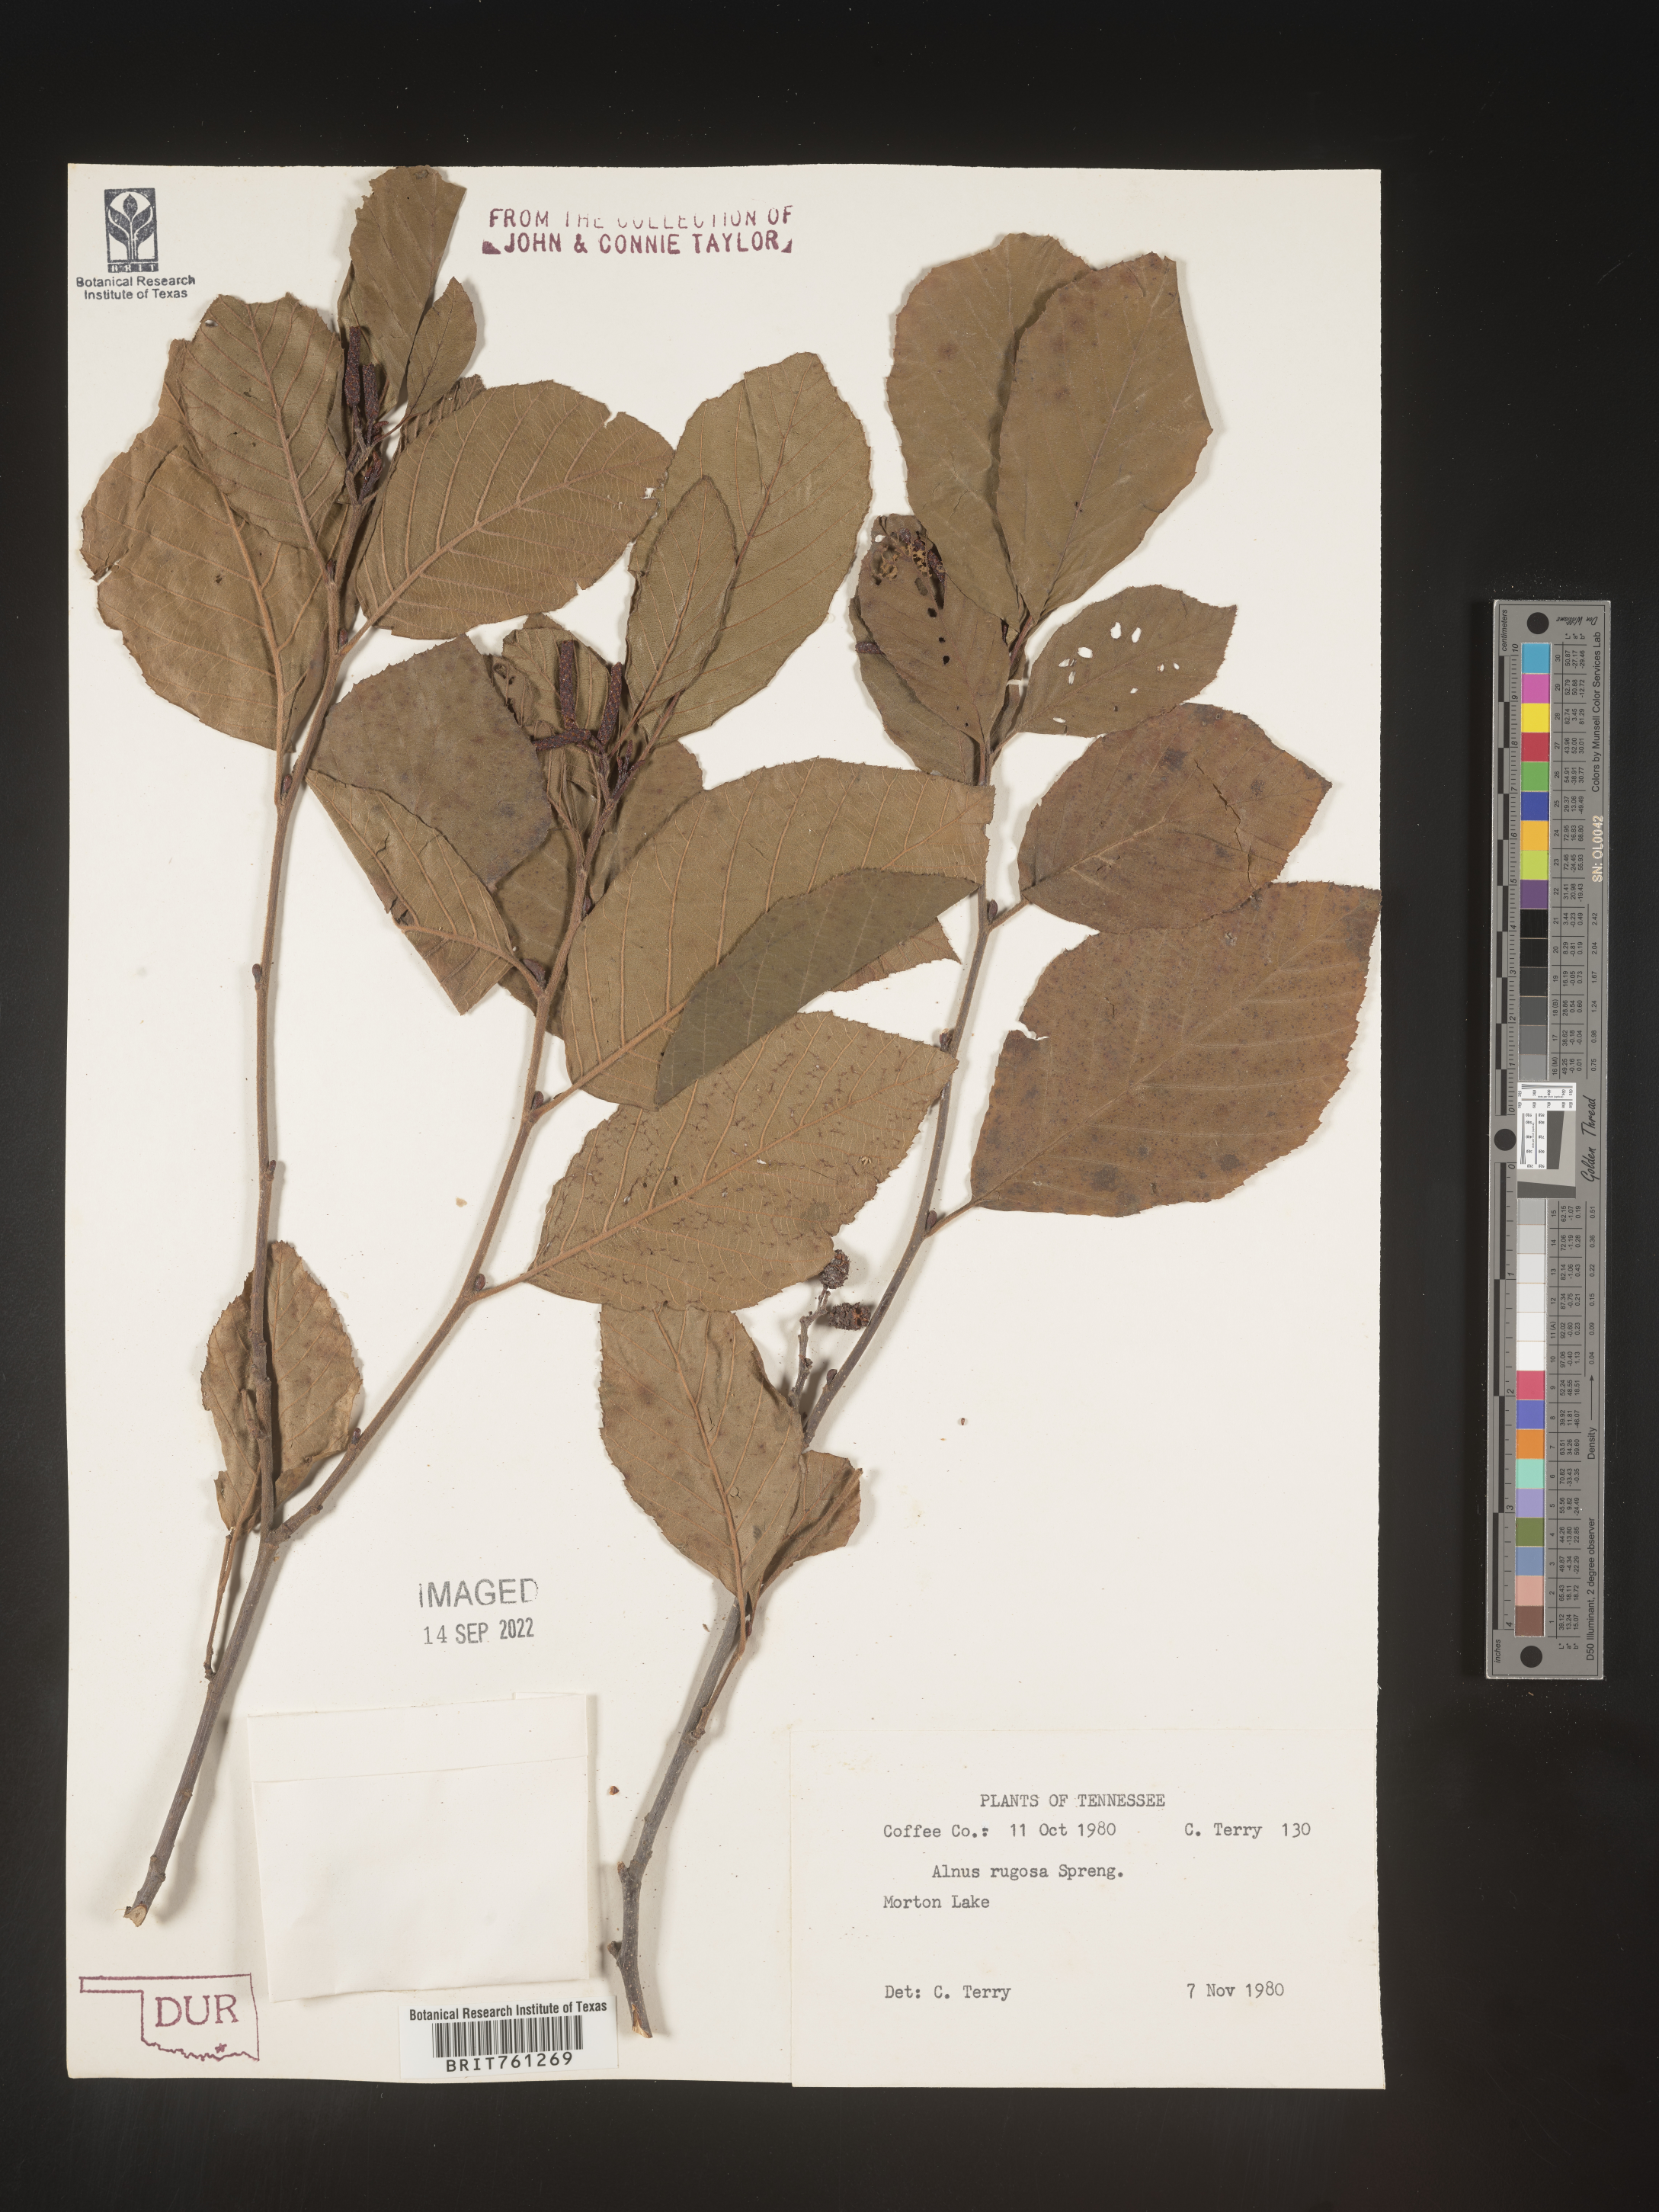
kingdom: Plantae
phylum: Tracheophyta
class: Magnoliopsida
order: Fagales
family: Betulaceae
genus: Alnus
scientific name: Alnus incana
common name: Grey alder
